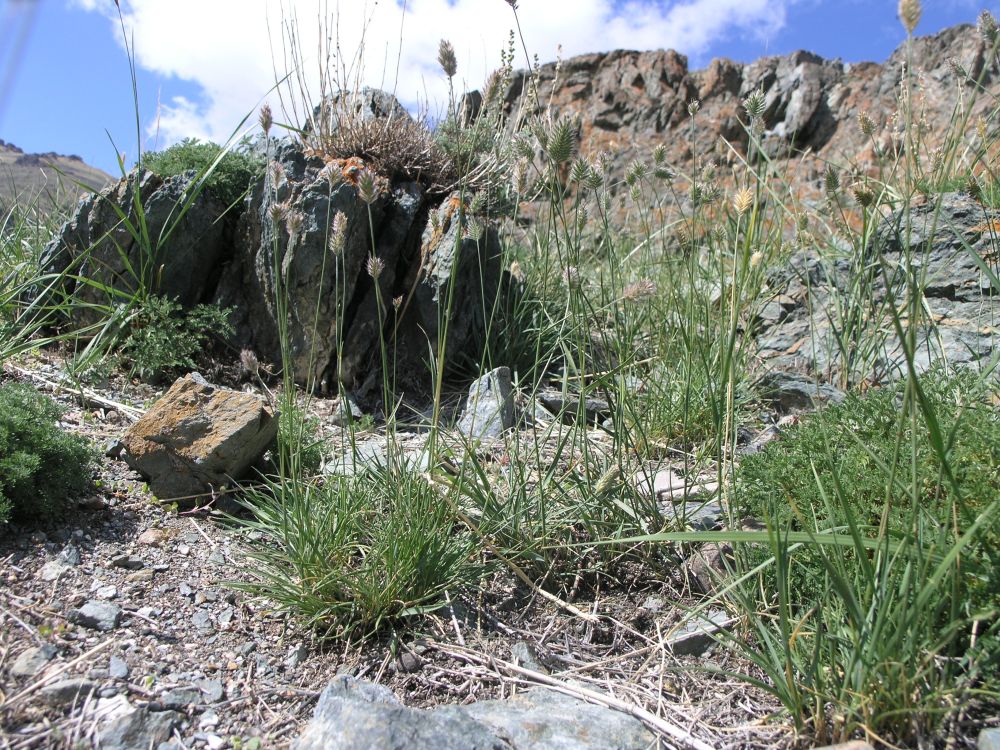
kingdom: Plantae
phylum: Tracheophyta
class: Liliopsida
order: Poales
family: Poaceae
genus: Agropyron
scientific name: Agropyron cristatum
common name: Crested wheatgrass
